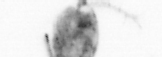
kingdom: Animalia
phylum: Arthropoda
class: Copepoda
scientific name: Copepoda
